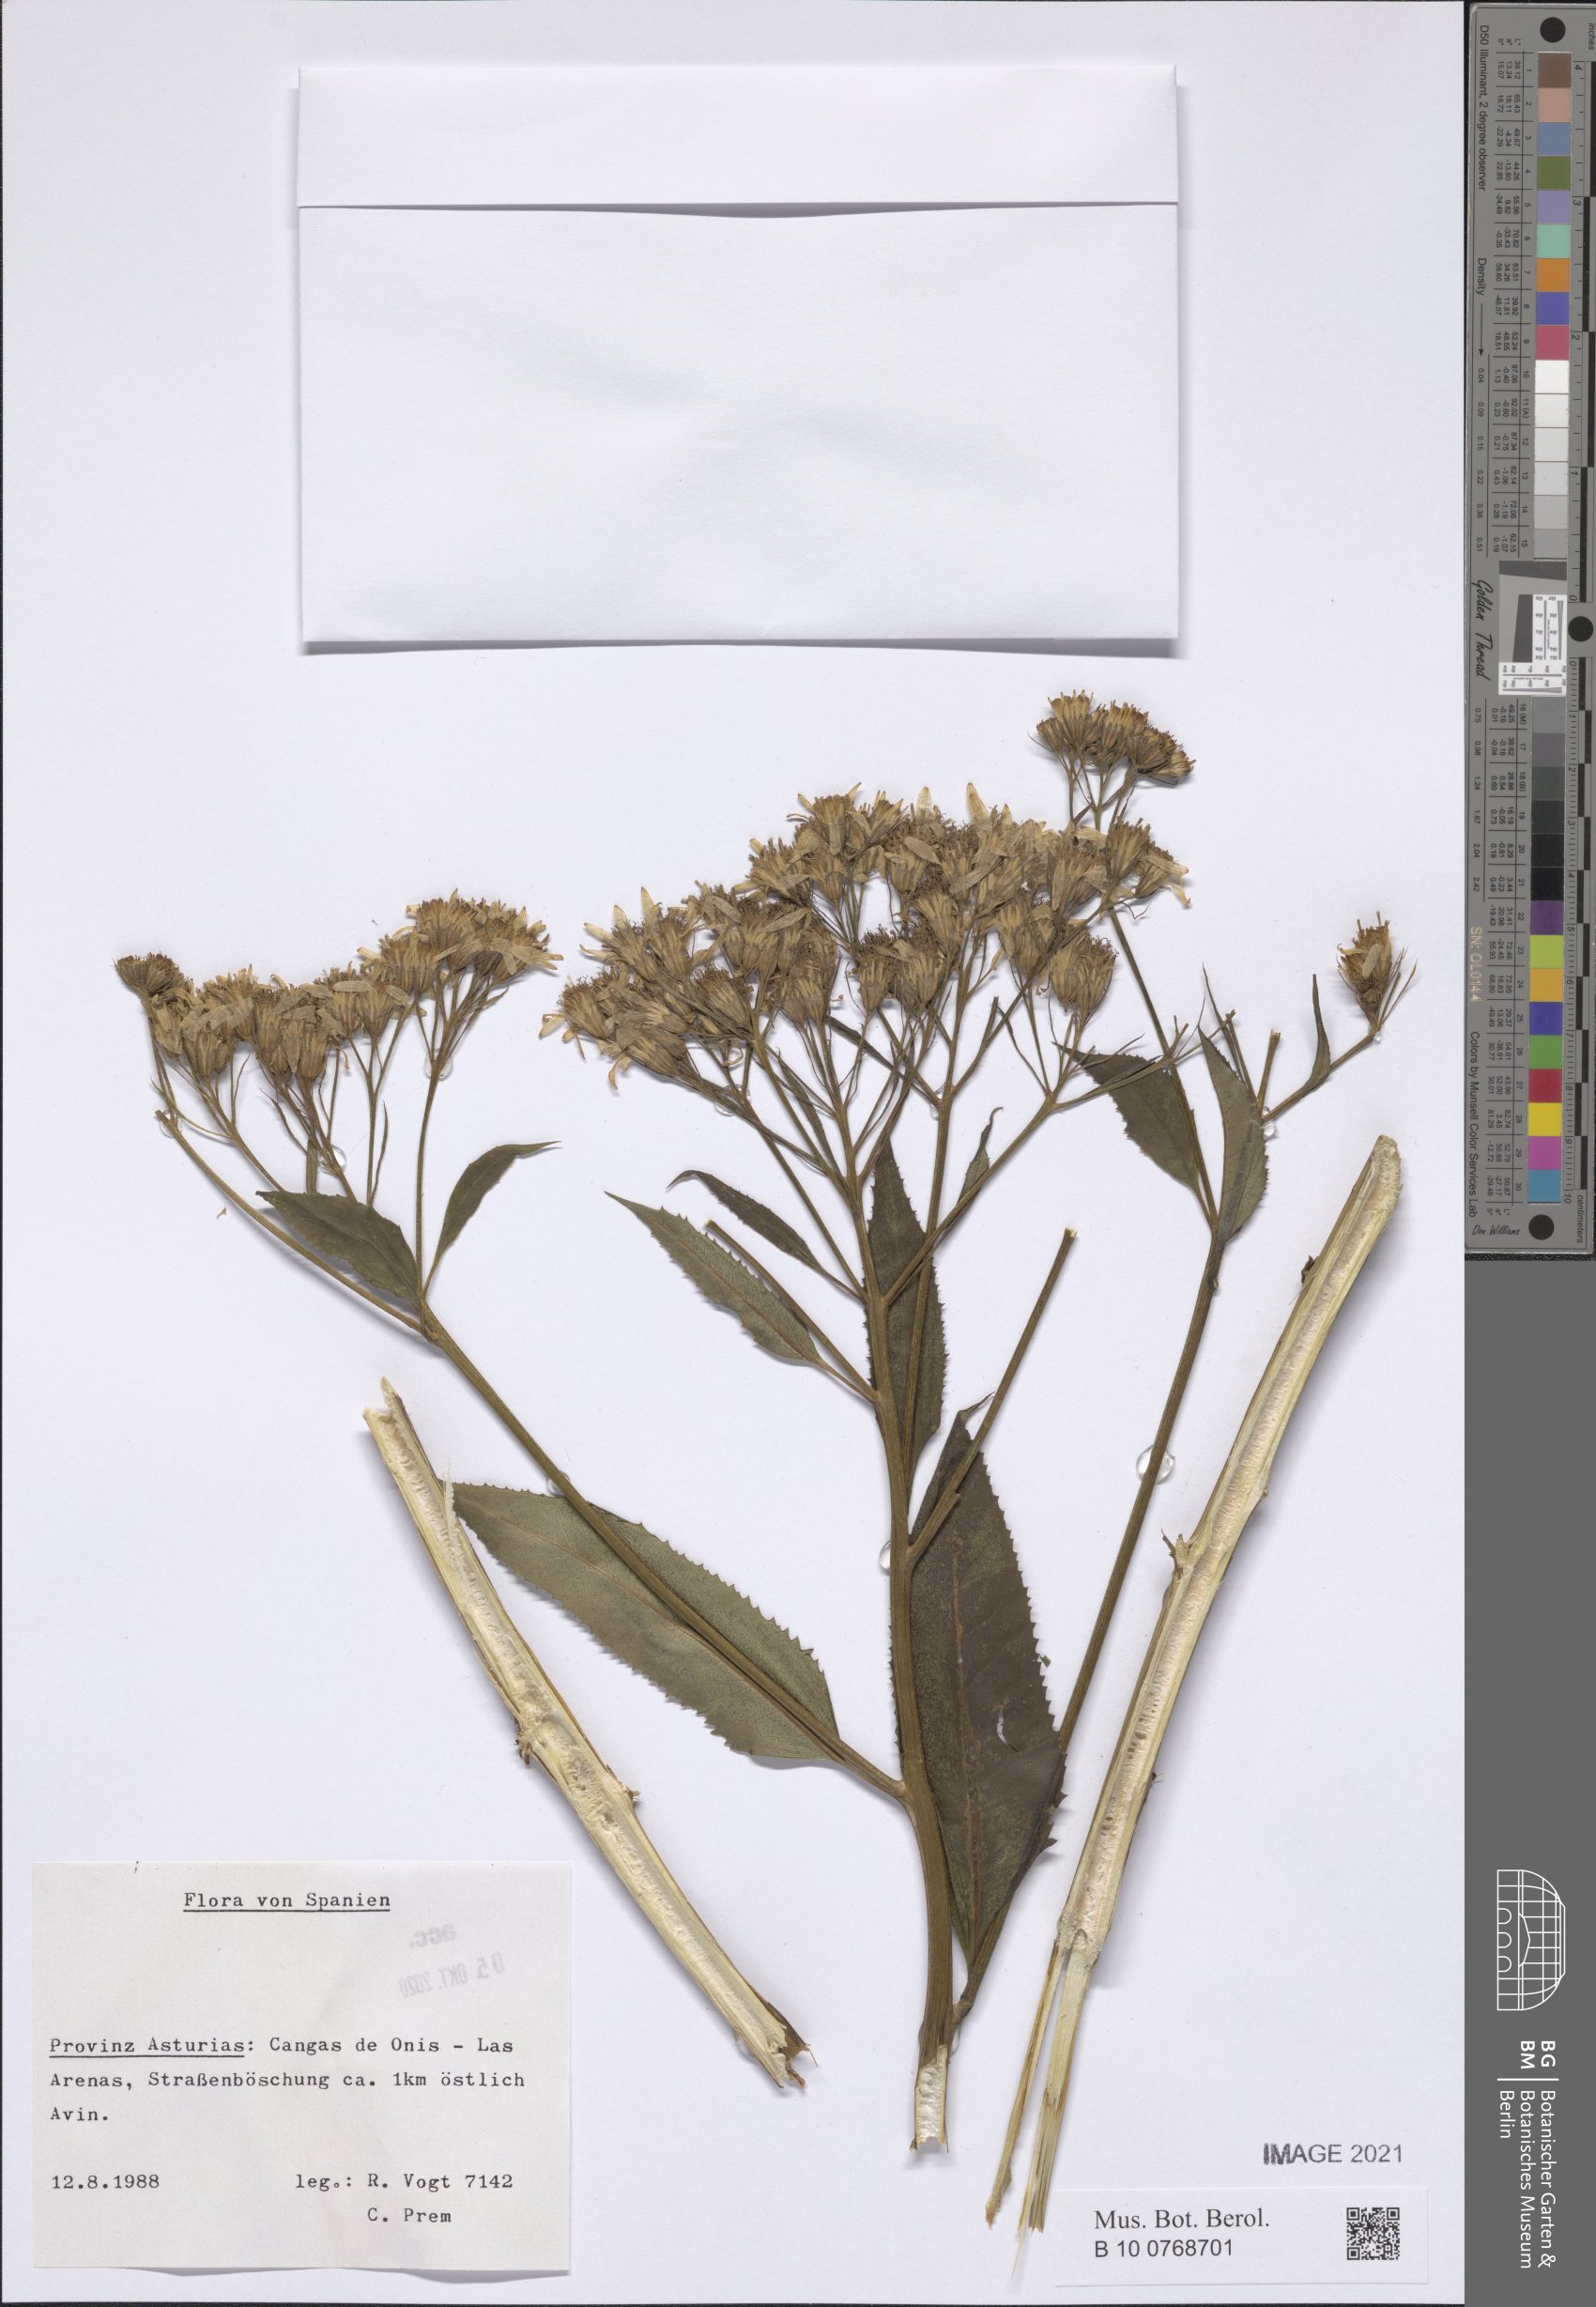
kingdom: Plantae
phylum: Tracheophyta
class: Magnoliopsida
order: Asterales
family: Asteraceae
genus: Senecio
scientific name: Senecio
